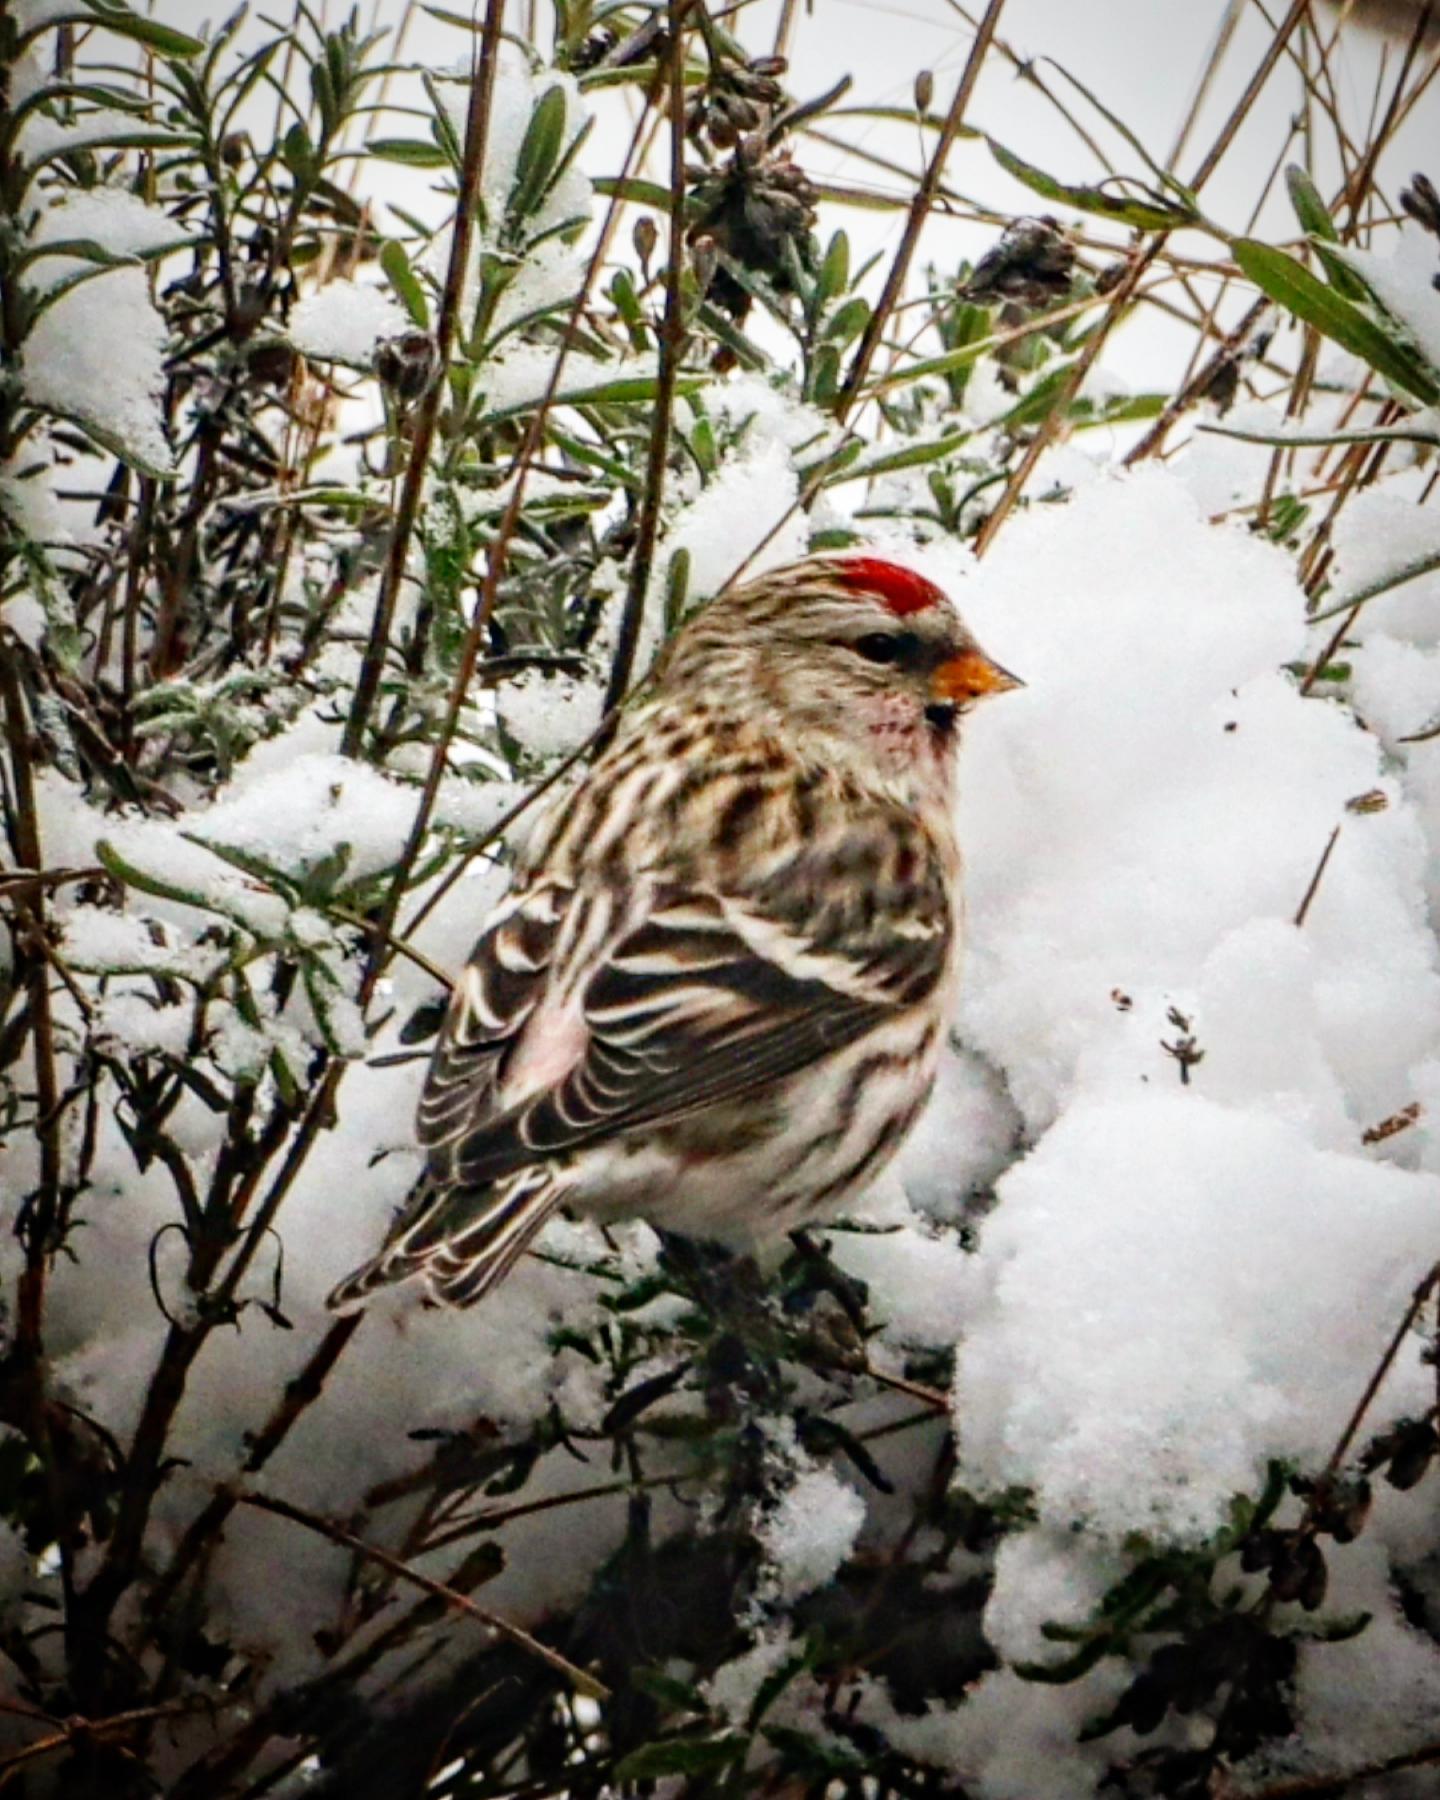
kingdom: Animalia
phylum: Chordata
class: Aves
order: Passeriformes
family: Fringillidae
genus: Acanthis
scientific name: Acanthis flammea
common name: Nordlig gråsisken
